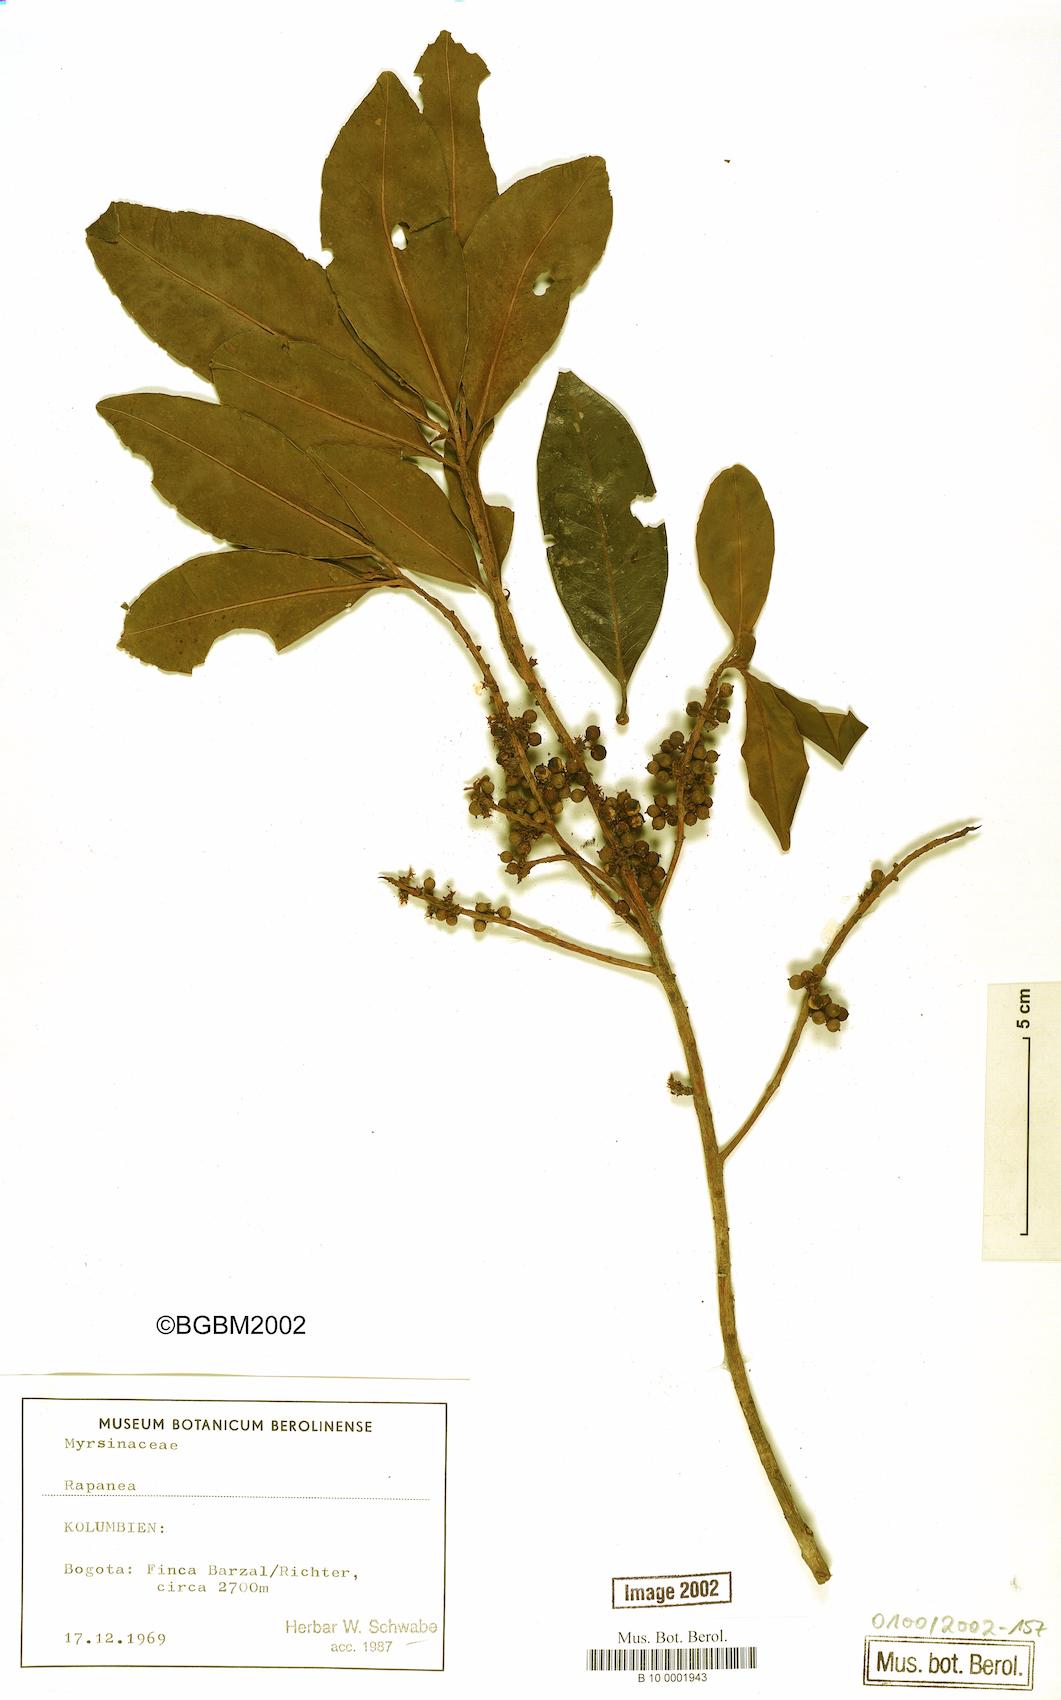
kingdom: Plantae
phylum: Tracheophyta
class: Magnoliopsida
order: Ericales
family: Primulaceae
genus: Myrsine
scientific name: Myrsine
